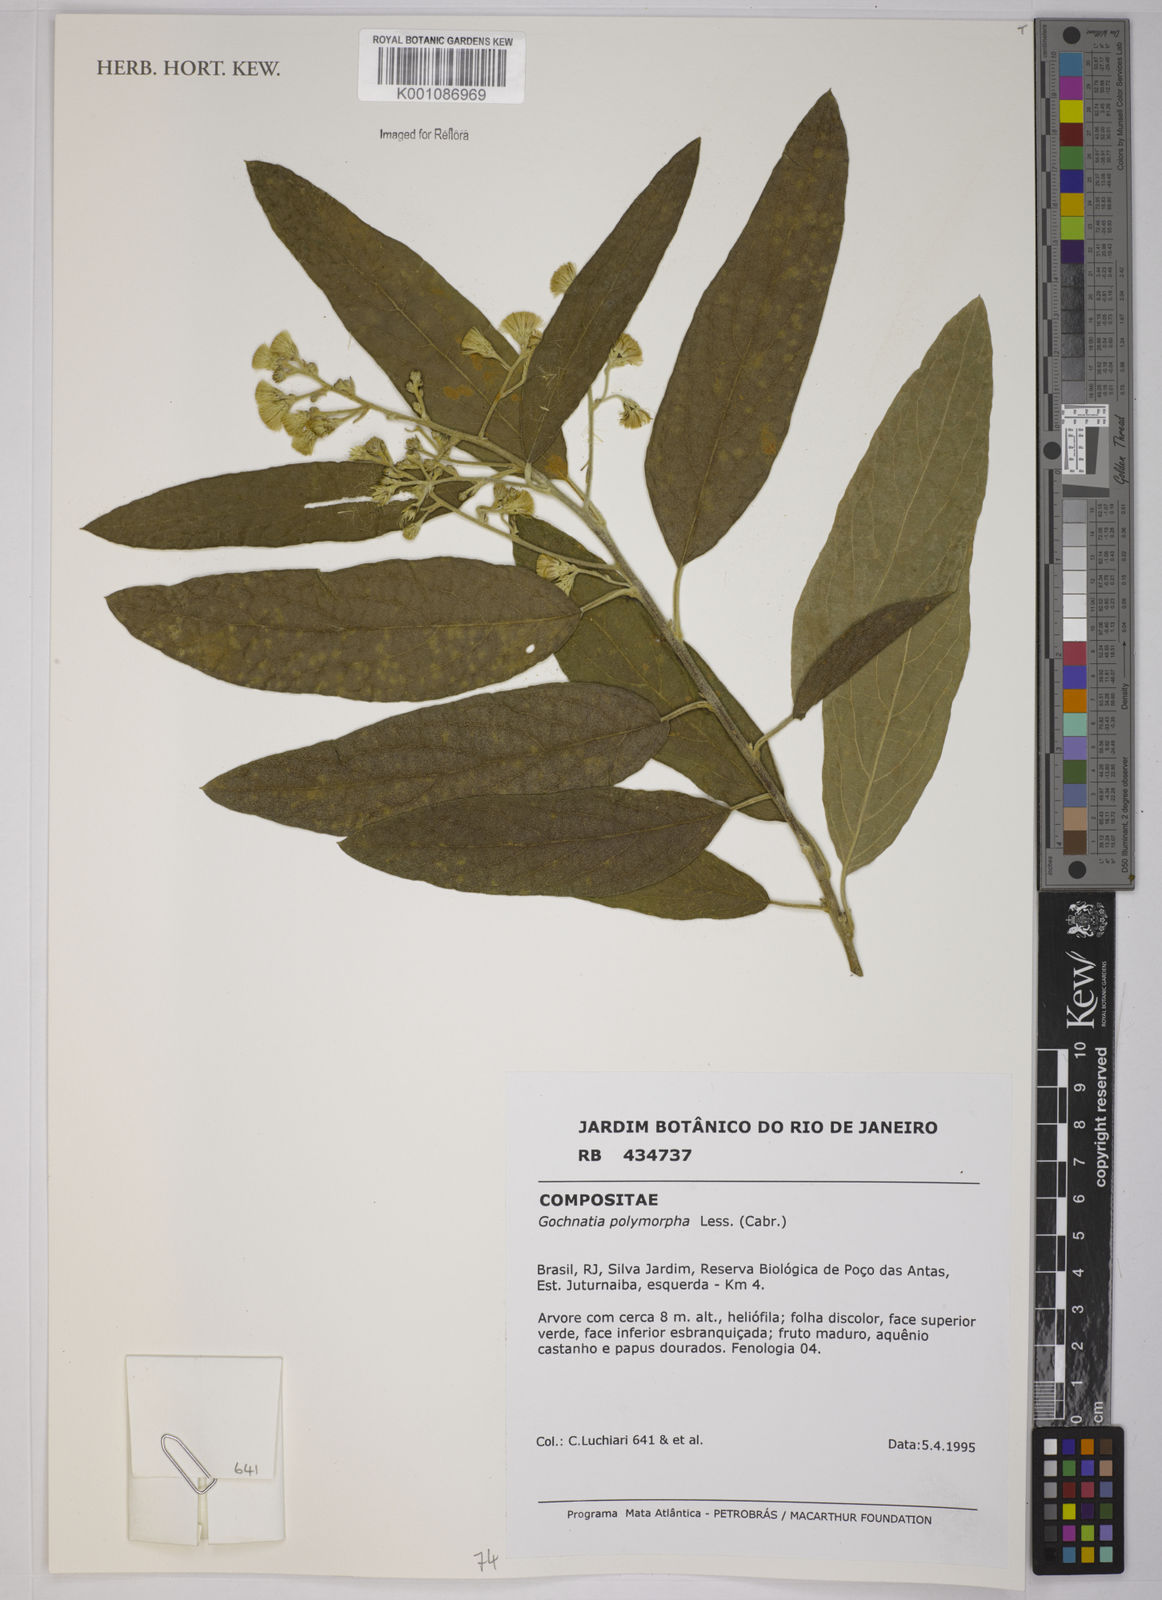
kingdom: Plantae
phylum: Tracheophyta
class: Magnoliopsida
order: Asterales
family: Asteraceae
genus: Moquiniastrum
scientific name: Moquiniastrum polymorphum
